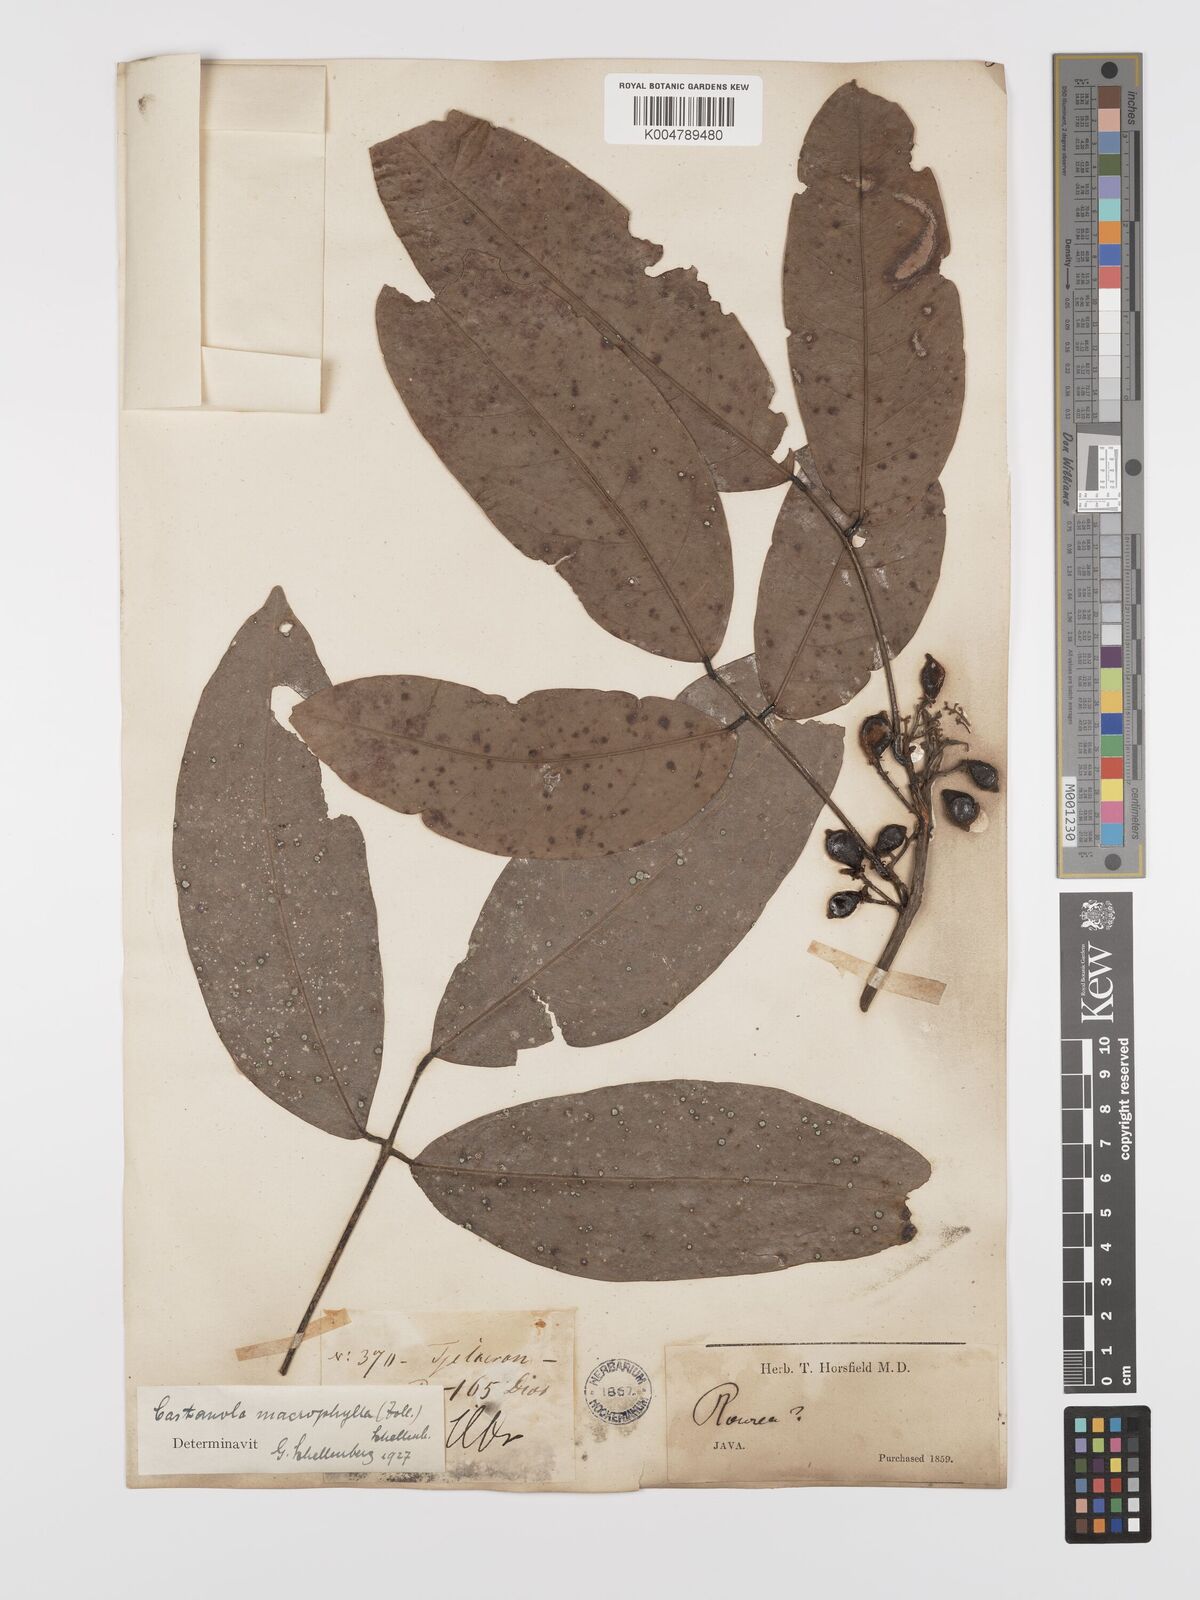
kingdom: Plantae
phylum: Tracheophyta
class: Magnoliopsida
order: Oxalidales
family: Connaraceae
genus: Agelaea
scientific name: Agelaea macrophylla
